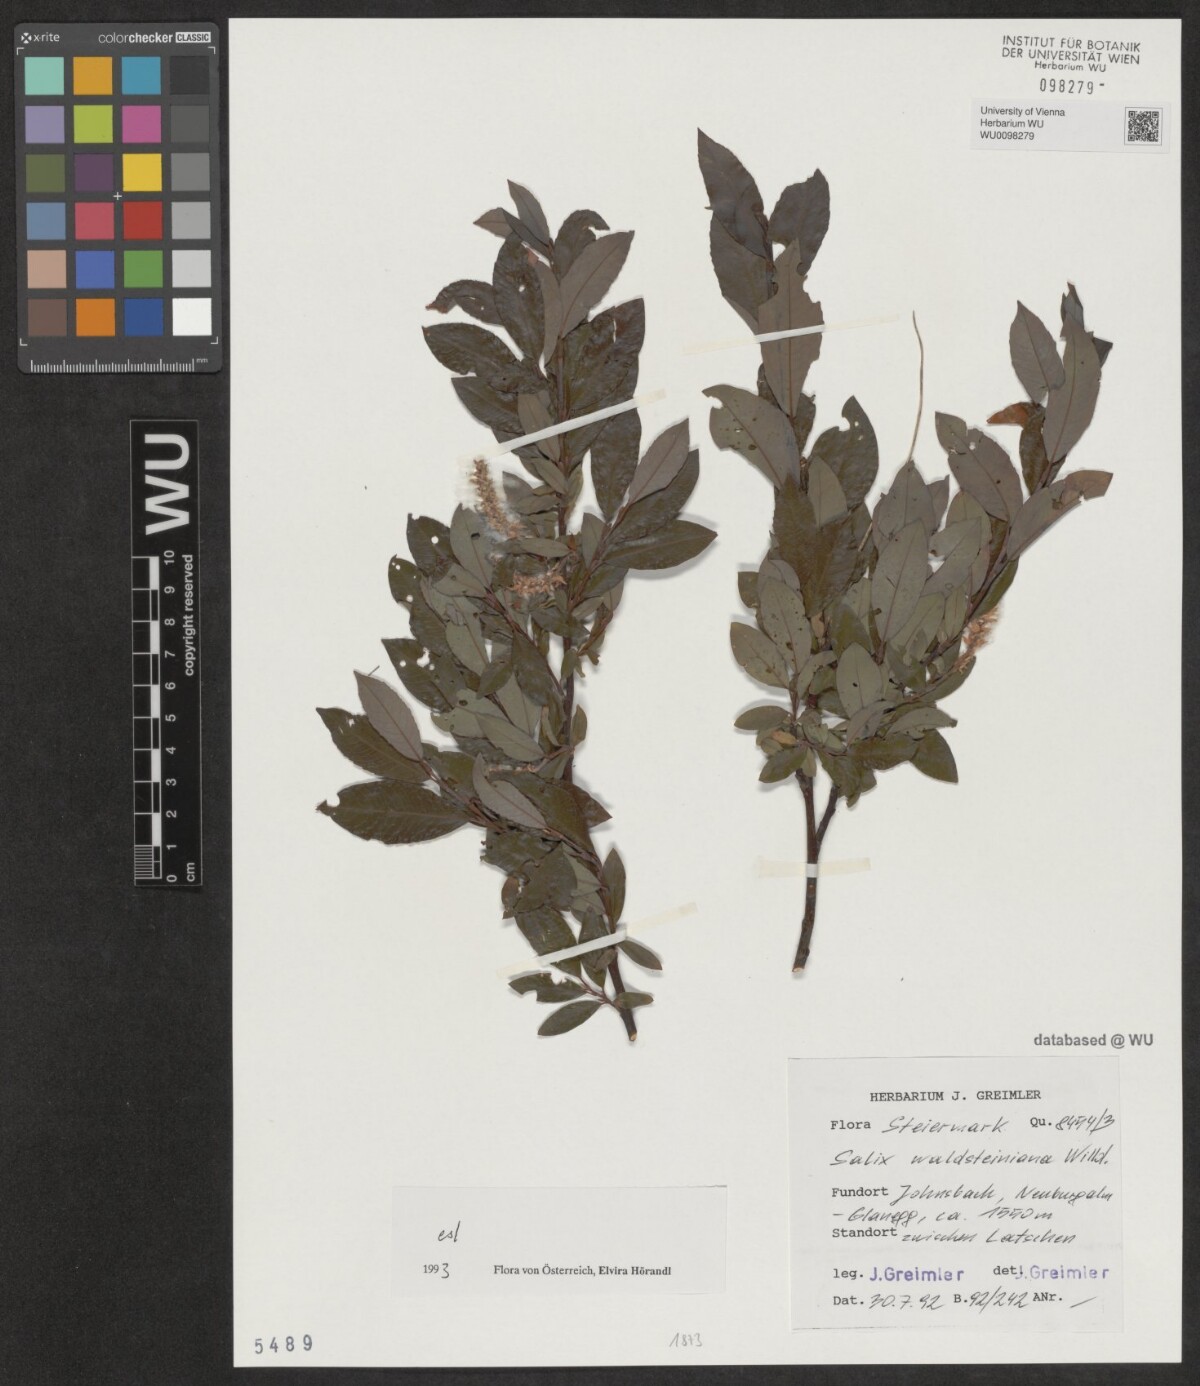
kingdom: Plantae
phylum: Tracheophyta
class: Magnoliopsida
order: Malpighiales
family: Salicaceae
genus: Salix
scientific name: Salix waldsteiniana
